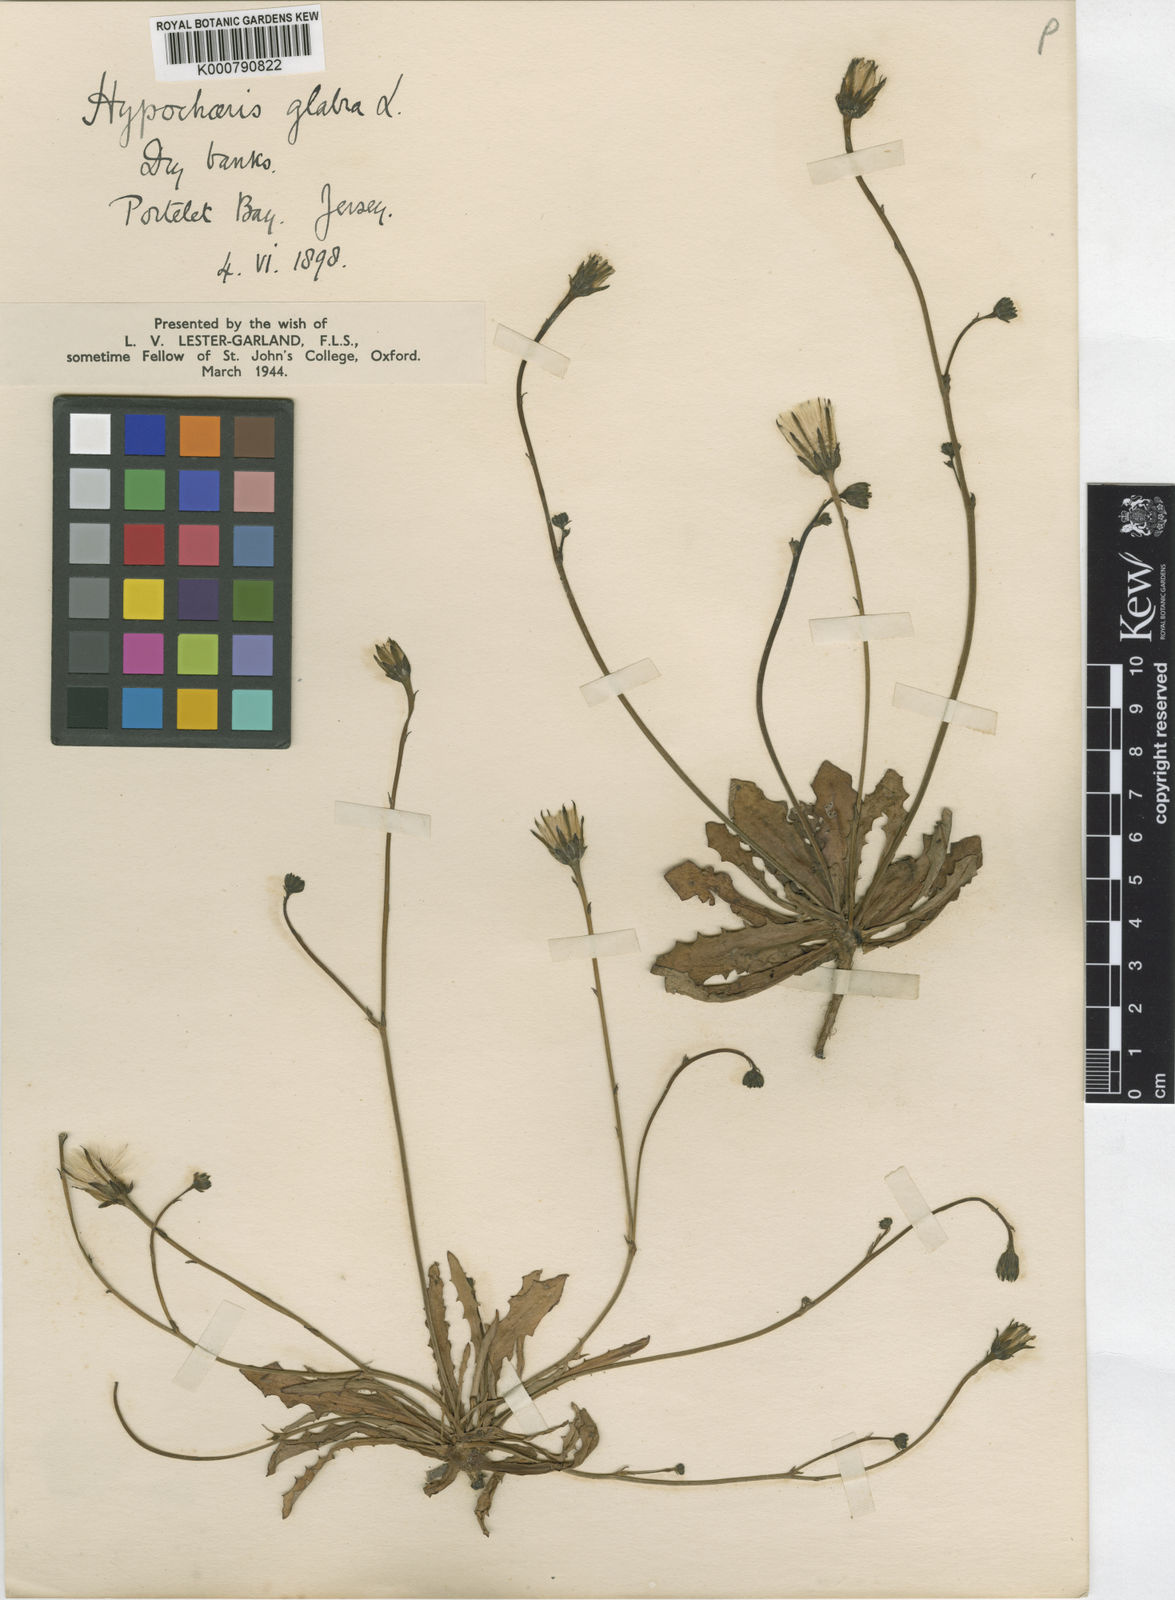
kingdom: Plantae
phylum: Tracheophyta
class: Magnoliopsida
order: Asterales
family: Asteraceae
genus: Hypochaeris
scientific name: Hypochaeris glabra
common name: Smooth catsear
